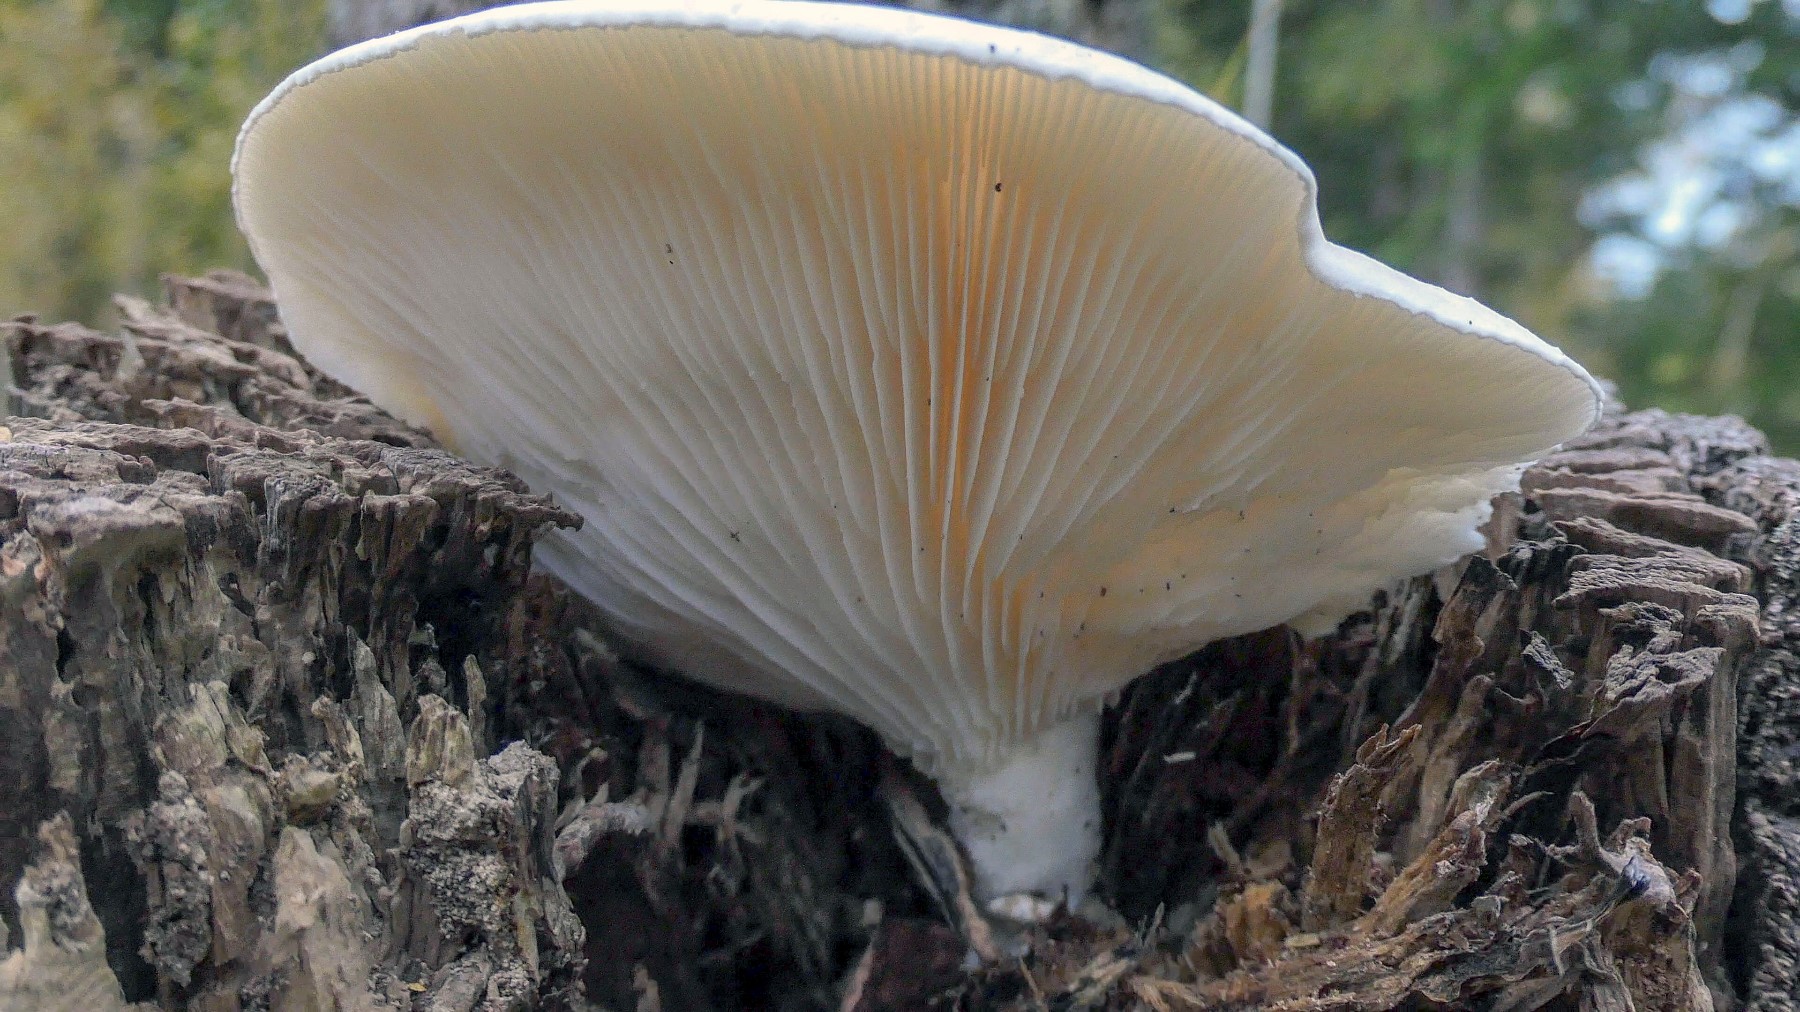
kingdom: Fungi
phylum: Basidiomycota
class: Agaricomycetes
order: Agaricales
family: Pleurotaceae
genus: Pleurotus
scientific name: Pleurotus dryinus
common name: korkagtig østershat
